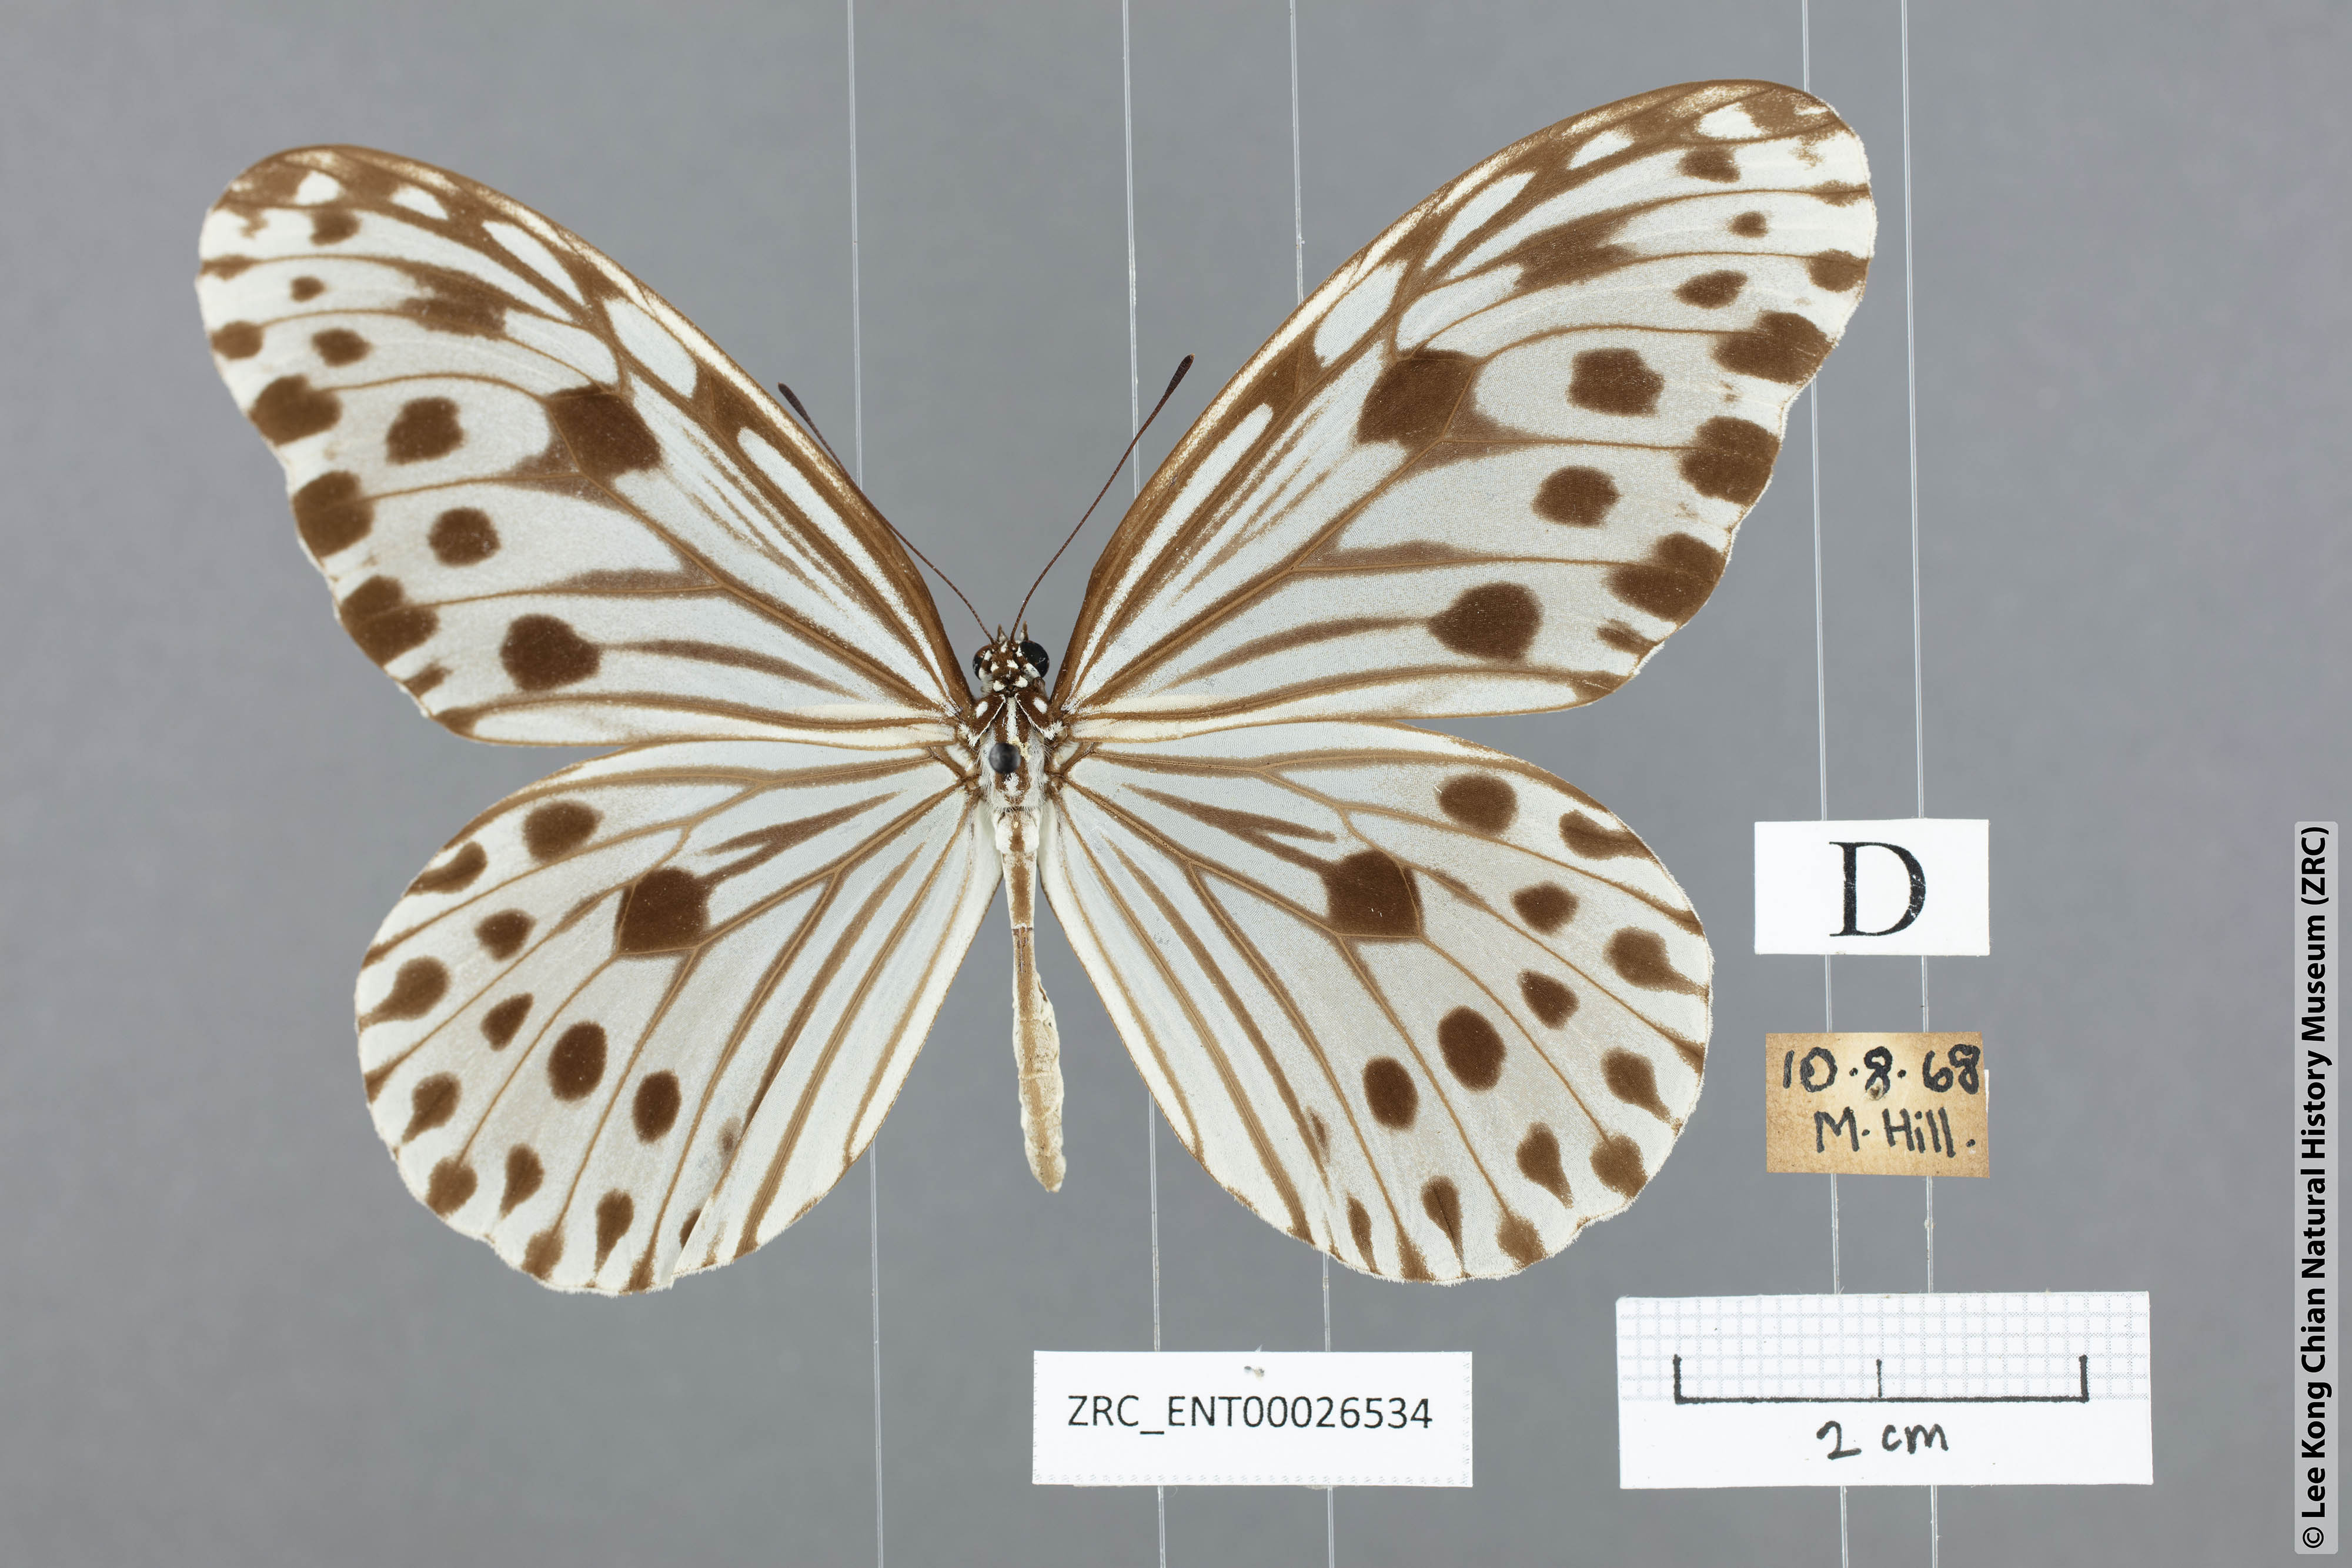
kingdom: Animalia
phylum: Arthropoda
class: Insecta
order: Lepidoptera
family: Nymphalidae
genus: Ideopsis
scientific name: Ideopsis gaura
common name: Smaller wood nymph
